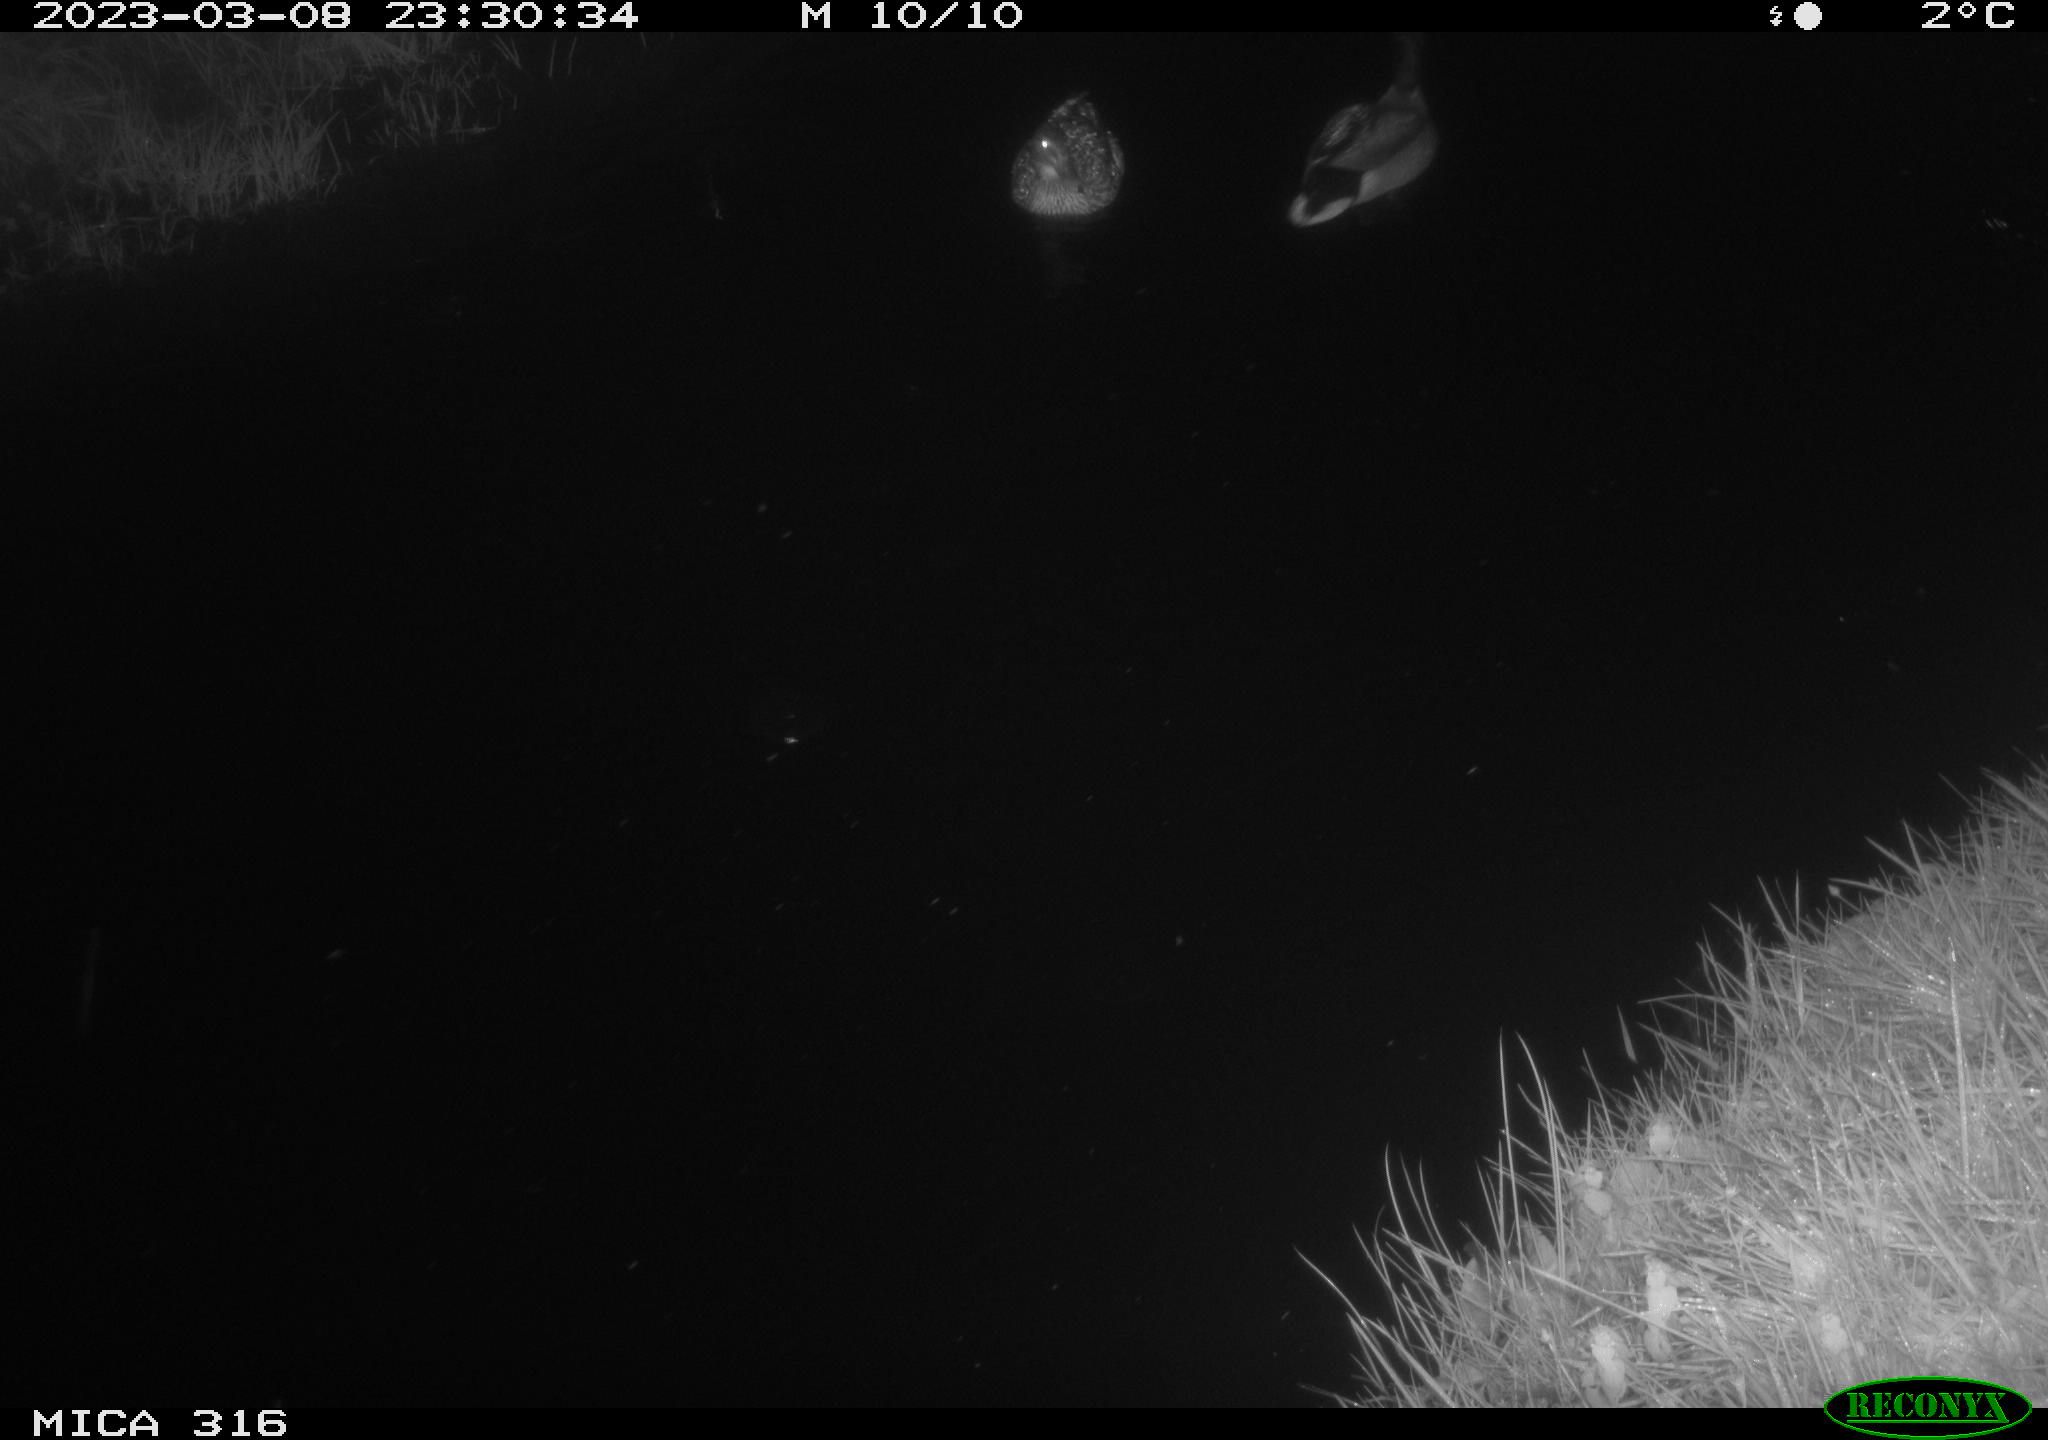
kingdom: Animalia
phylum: Chordata
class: Aves
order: Anseriformes
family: Anatidae
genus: Anas
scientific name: Anas
